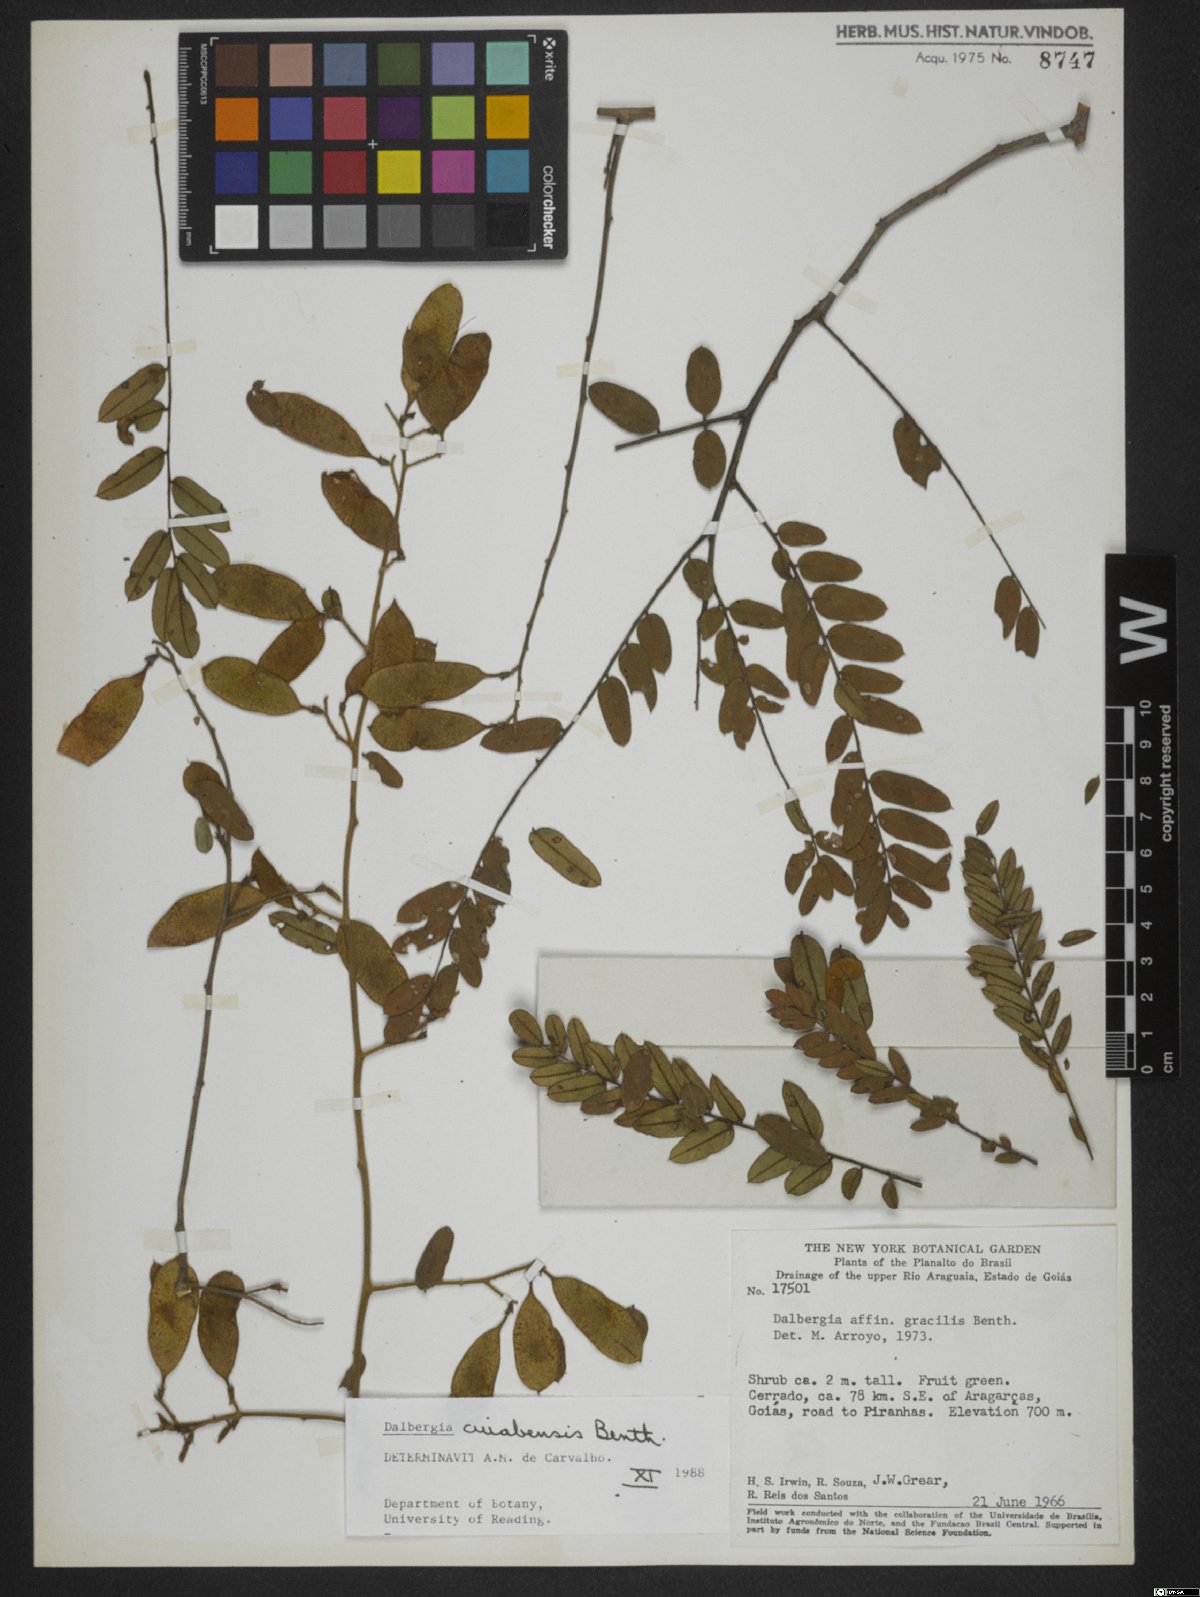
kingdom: Plantae
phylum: Tracheophyta
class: Magnoliopsida
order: Fabales
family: Fabaceae
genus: Dalbergia
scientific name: Dalbergia cujabensis
